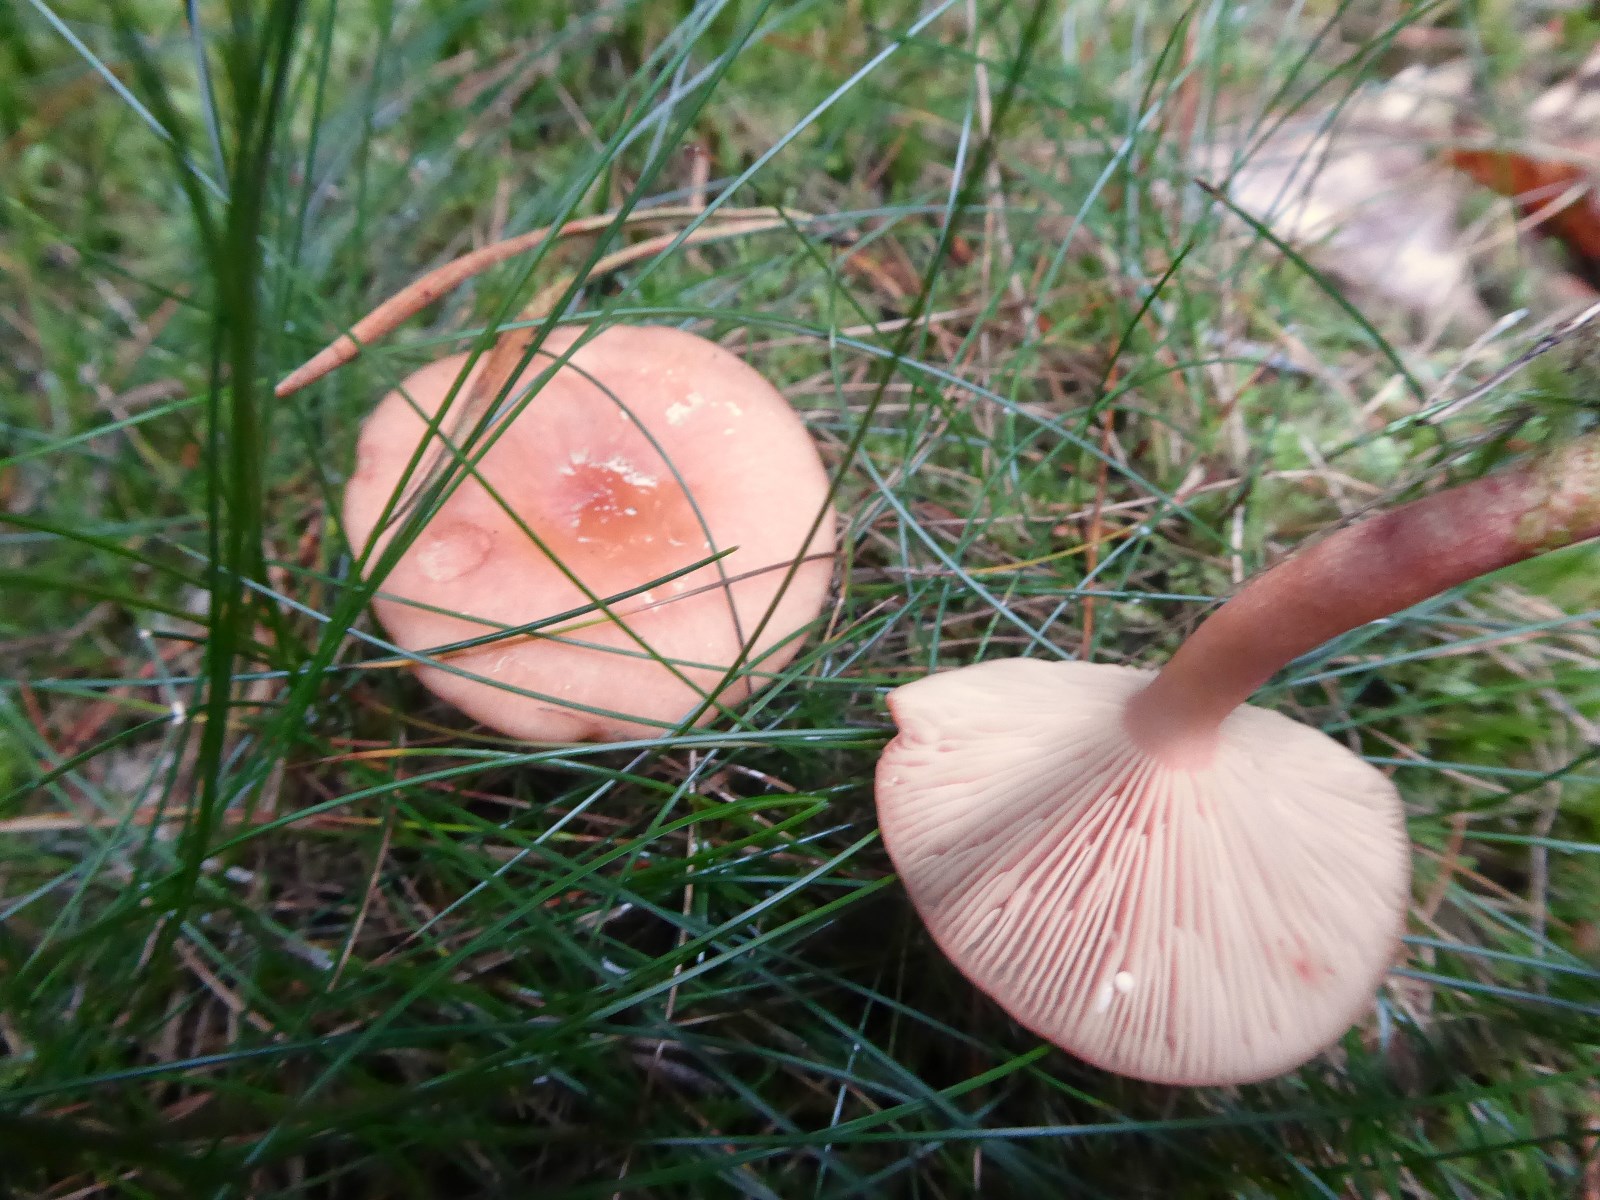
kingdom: Fungi
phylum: Basidiomycota
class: Agaricomycetes
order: Russulales
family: Russulaceae
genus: Lactarius
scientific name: Lactarius
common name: mælkehat
